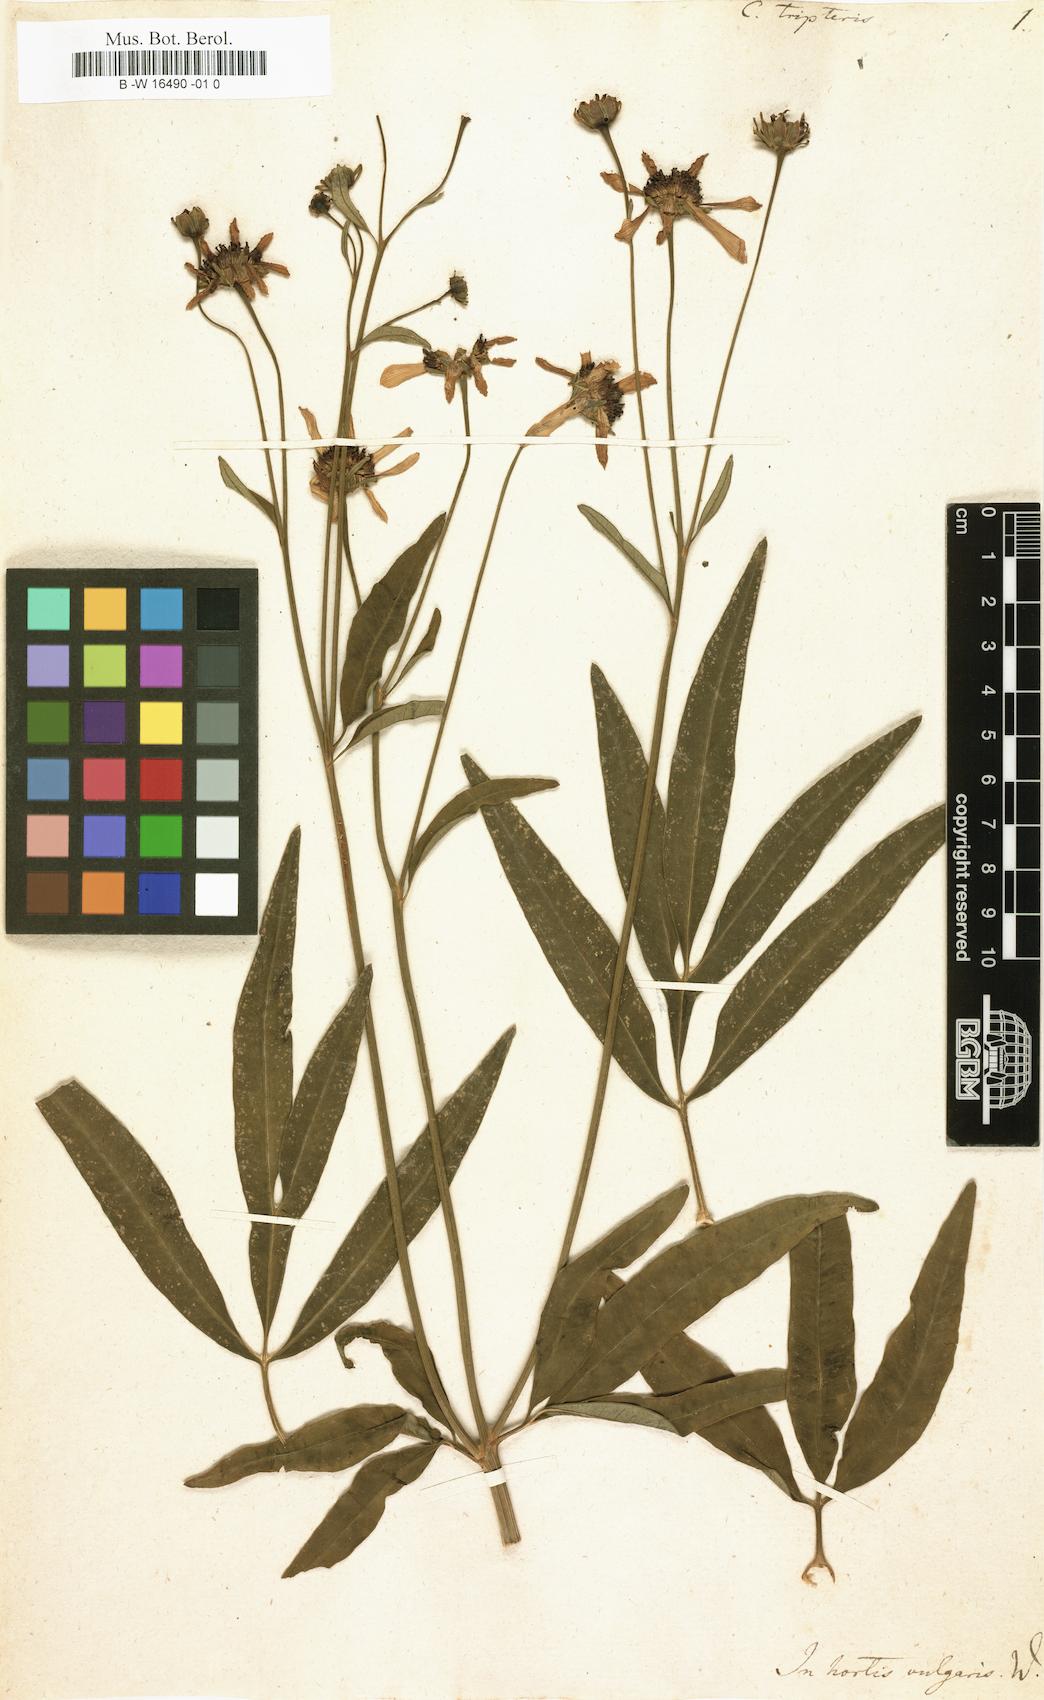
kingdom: Plantae
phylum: Tracheophyta
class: Magnoliopsida
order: Asterales
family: Asteraceae
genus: Coreopsis
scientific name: Coreopsis tripteris
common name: Tall coreopsis
